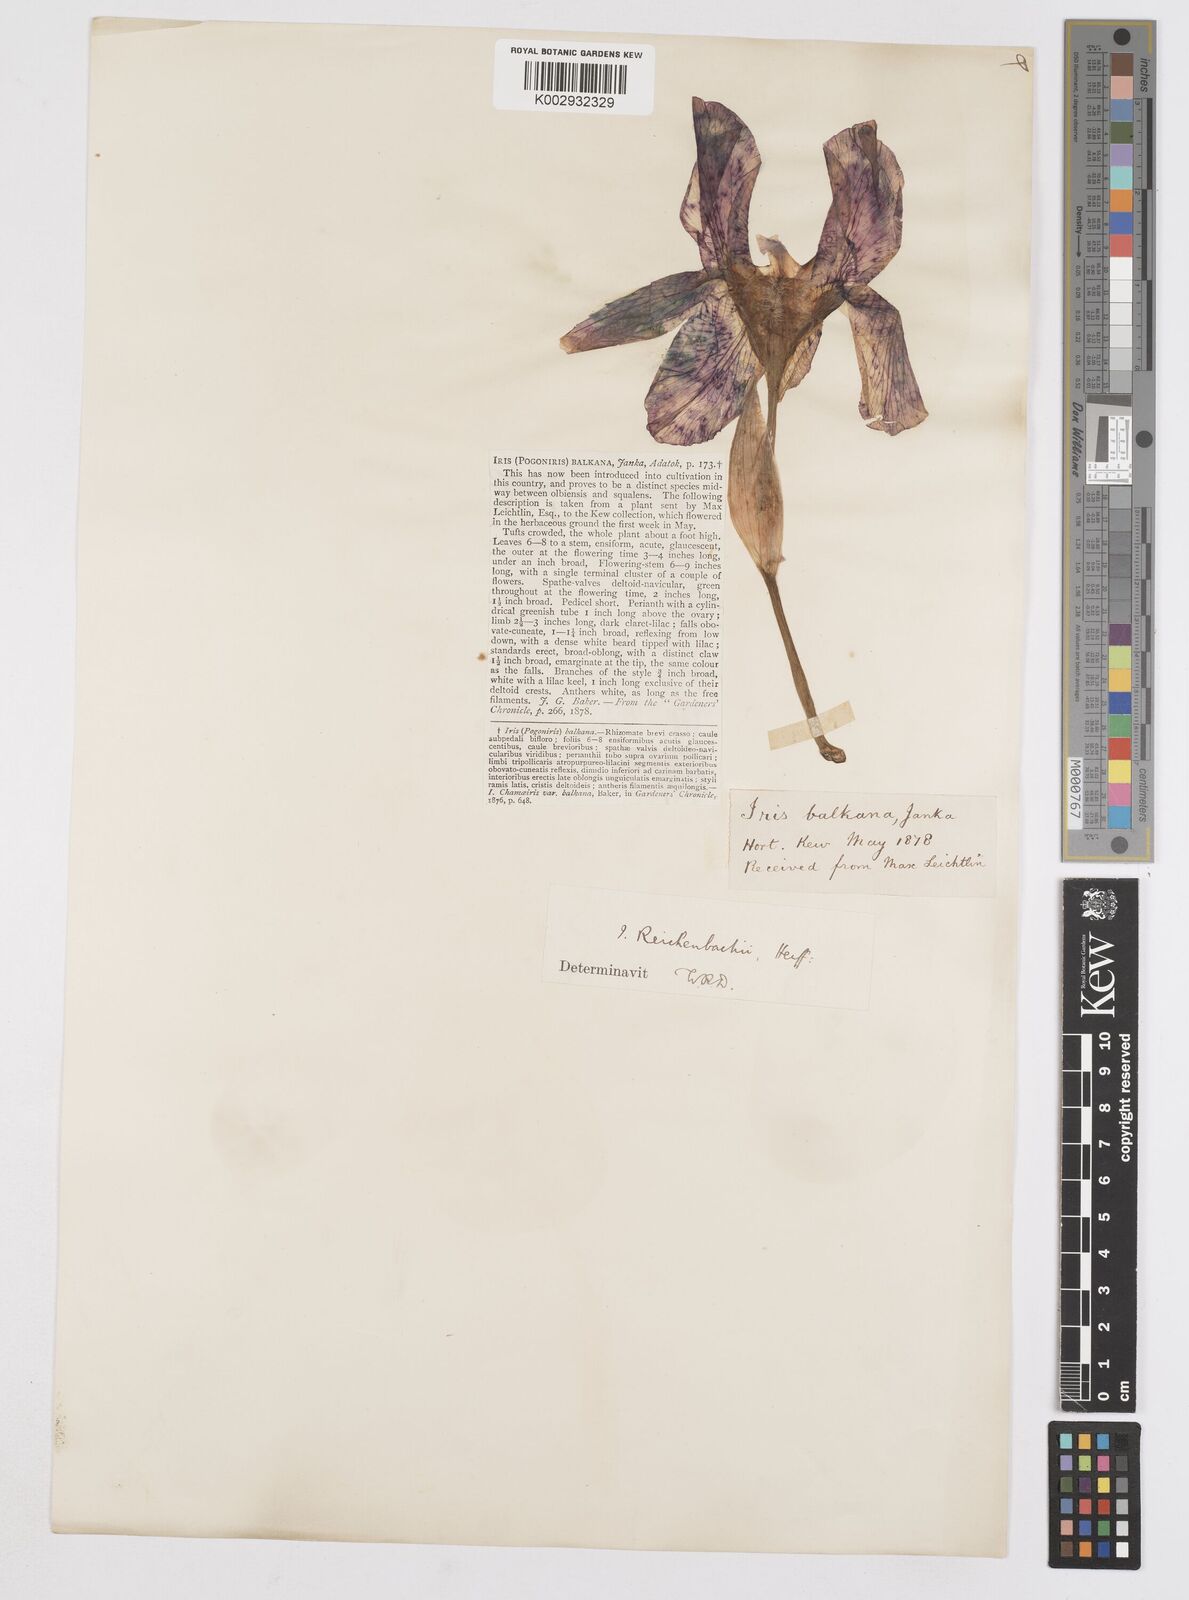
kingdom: Plantae
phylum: Tracheophyta
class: Liliopsida
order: Asparagales
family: Iridaceae
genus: Iris
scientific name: Iris reichenbachii
